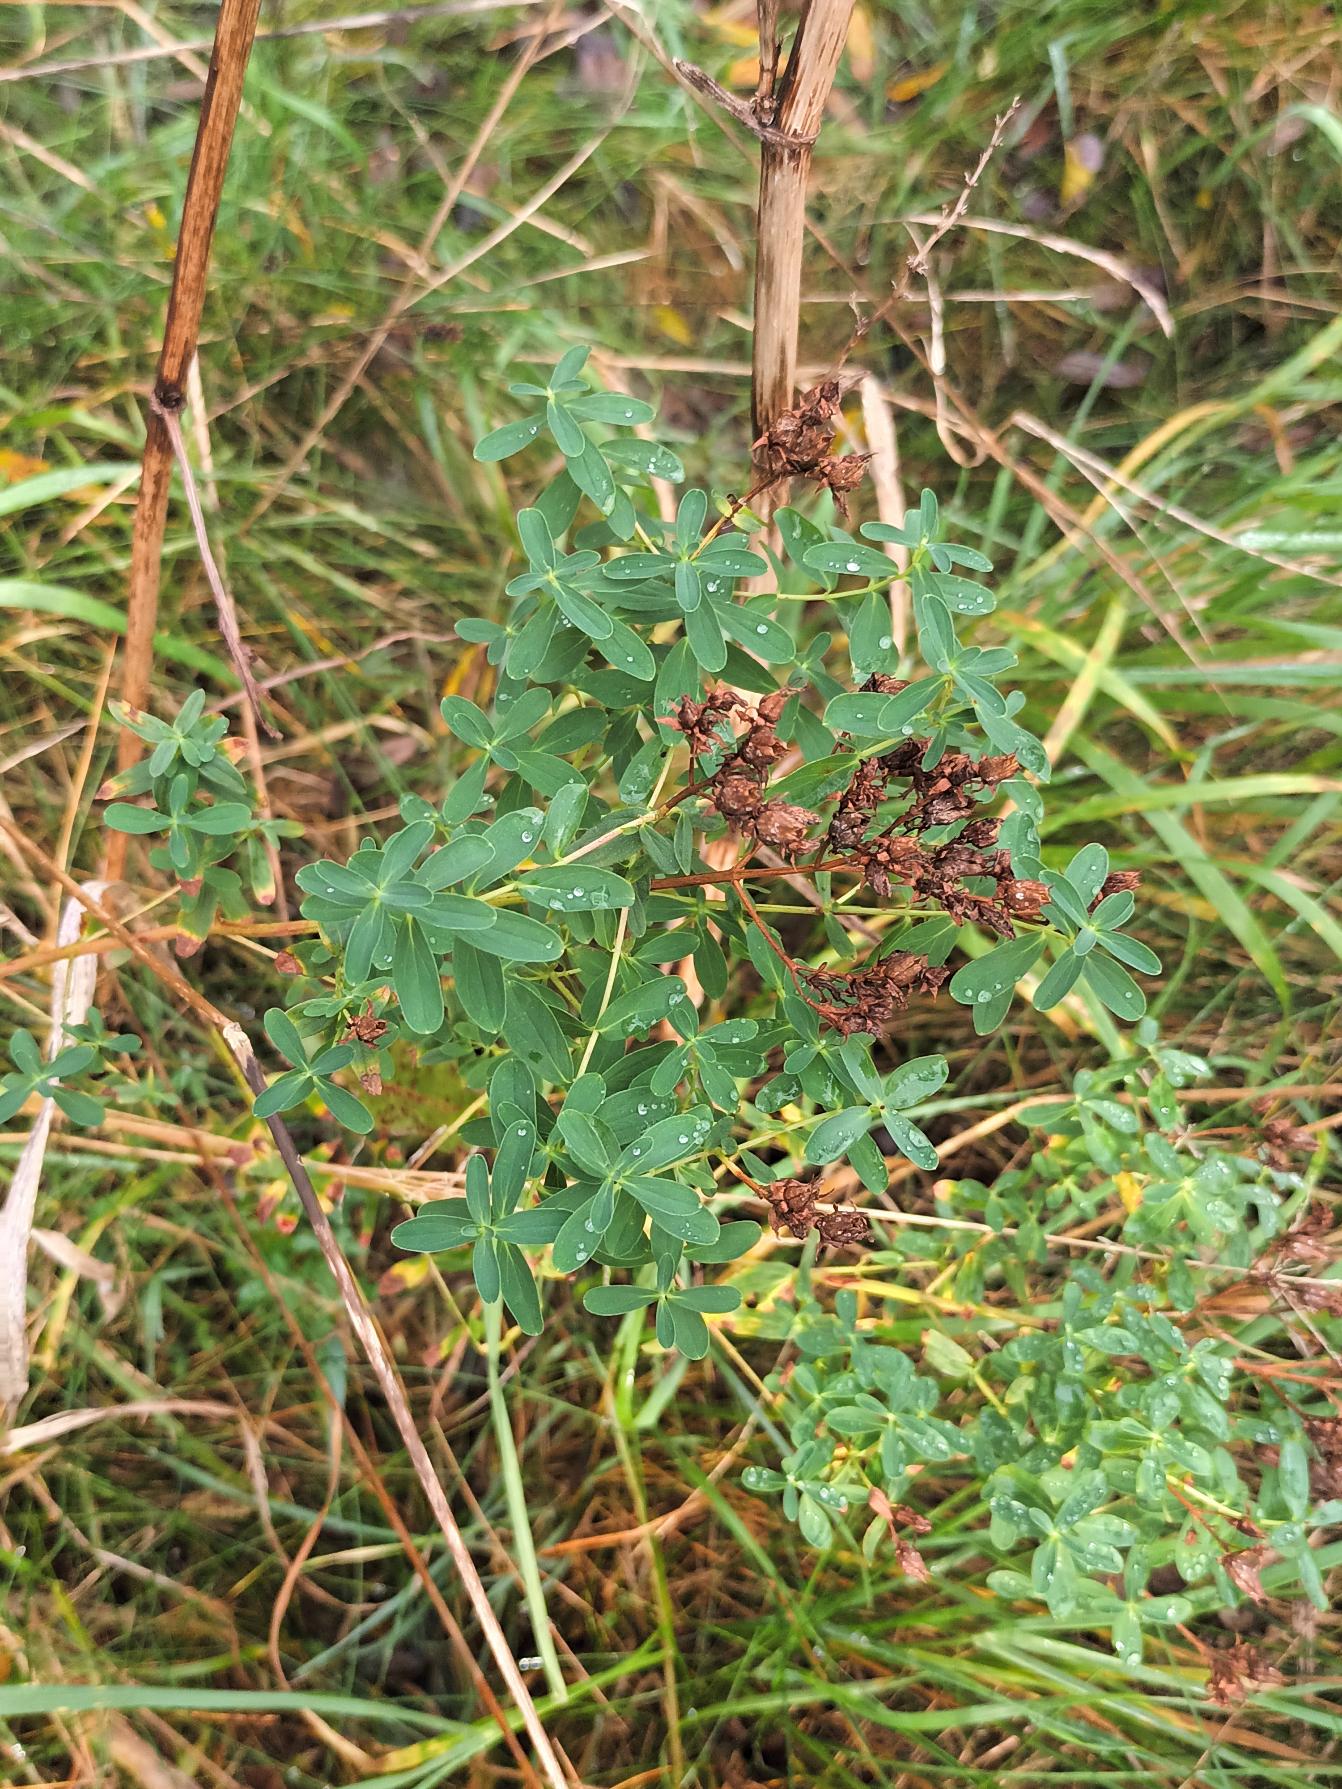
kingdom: Plantae
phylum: Tracheophyta
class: Magnoliopsida
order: Malpighiales
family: Hypericaceae
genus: Hypericum
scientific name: Hypericum perforatum
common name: Prikbladet perikon
